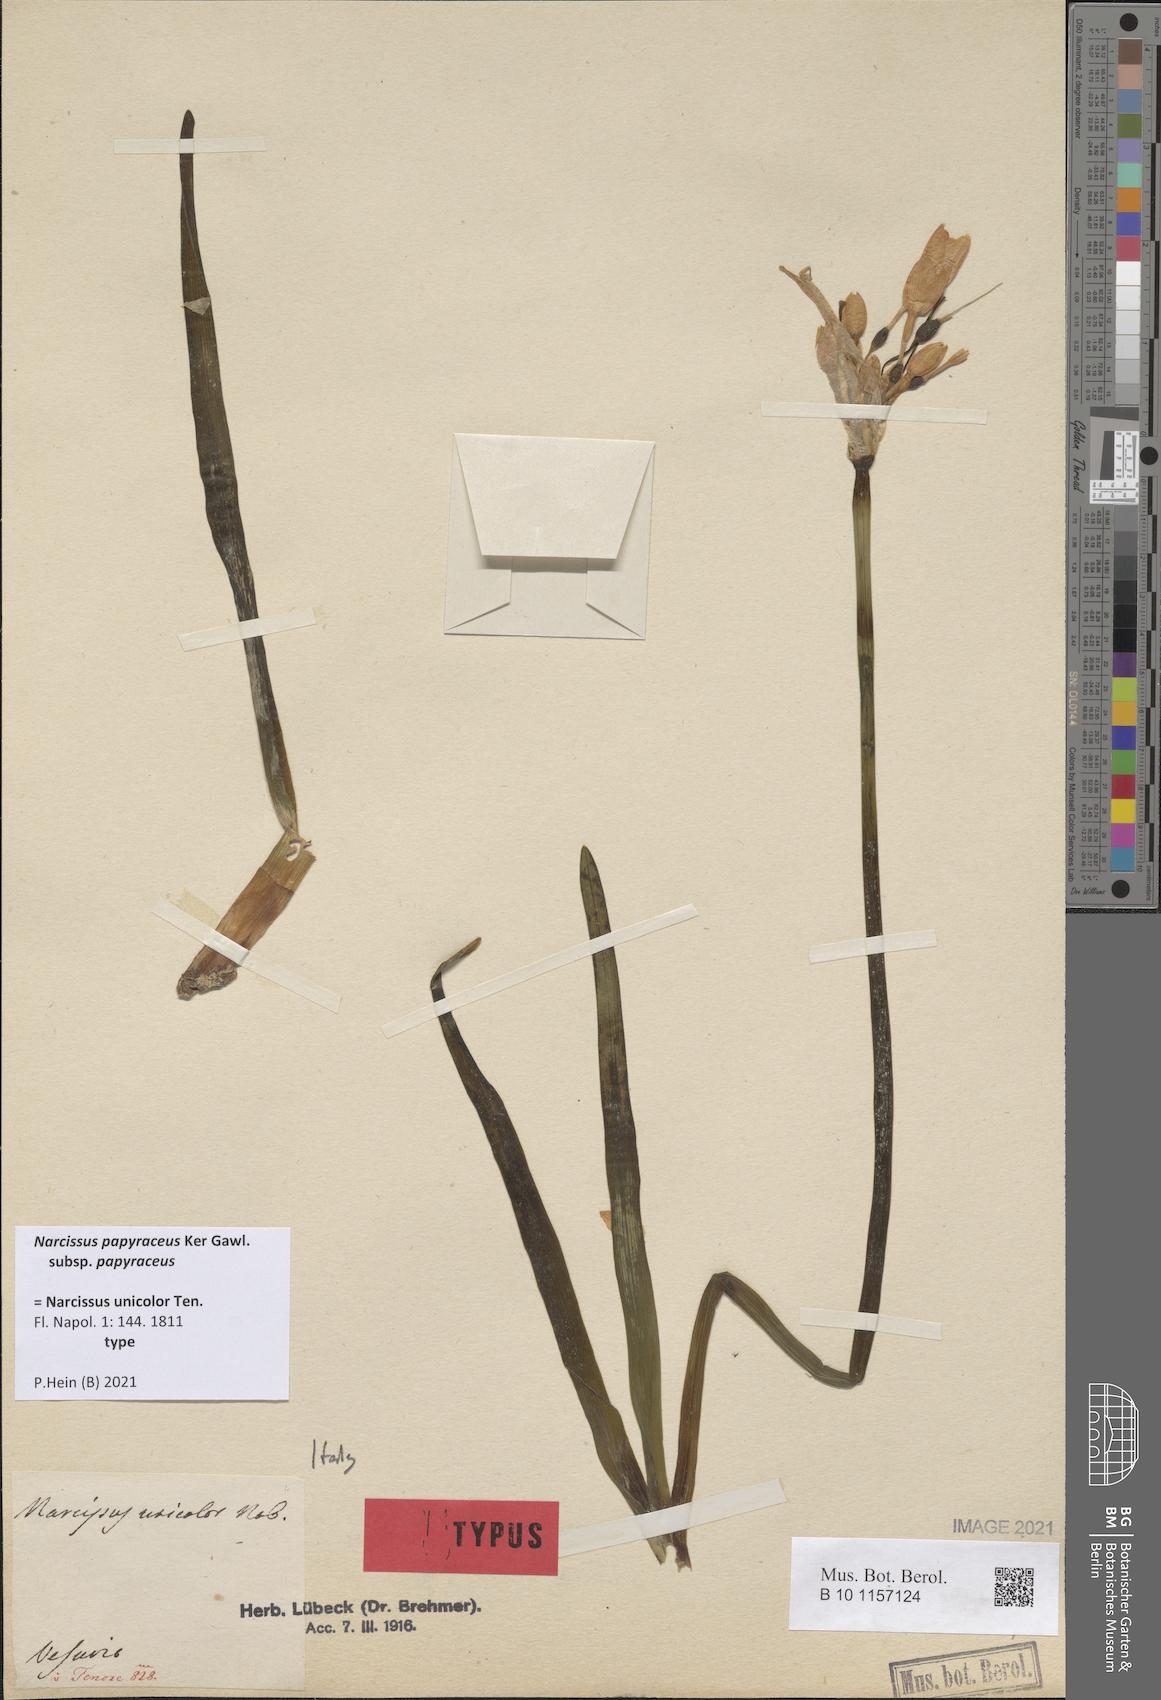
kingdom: Plantae
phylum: Tracheophyta
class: Liliopsida
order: Asparagales
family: Amaryllidaceae
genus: Narcissus
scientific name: Narcissus papyraceus
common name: Paper-white daffodil
